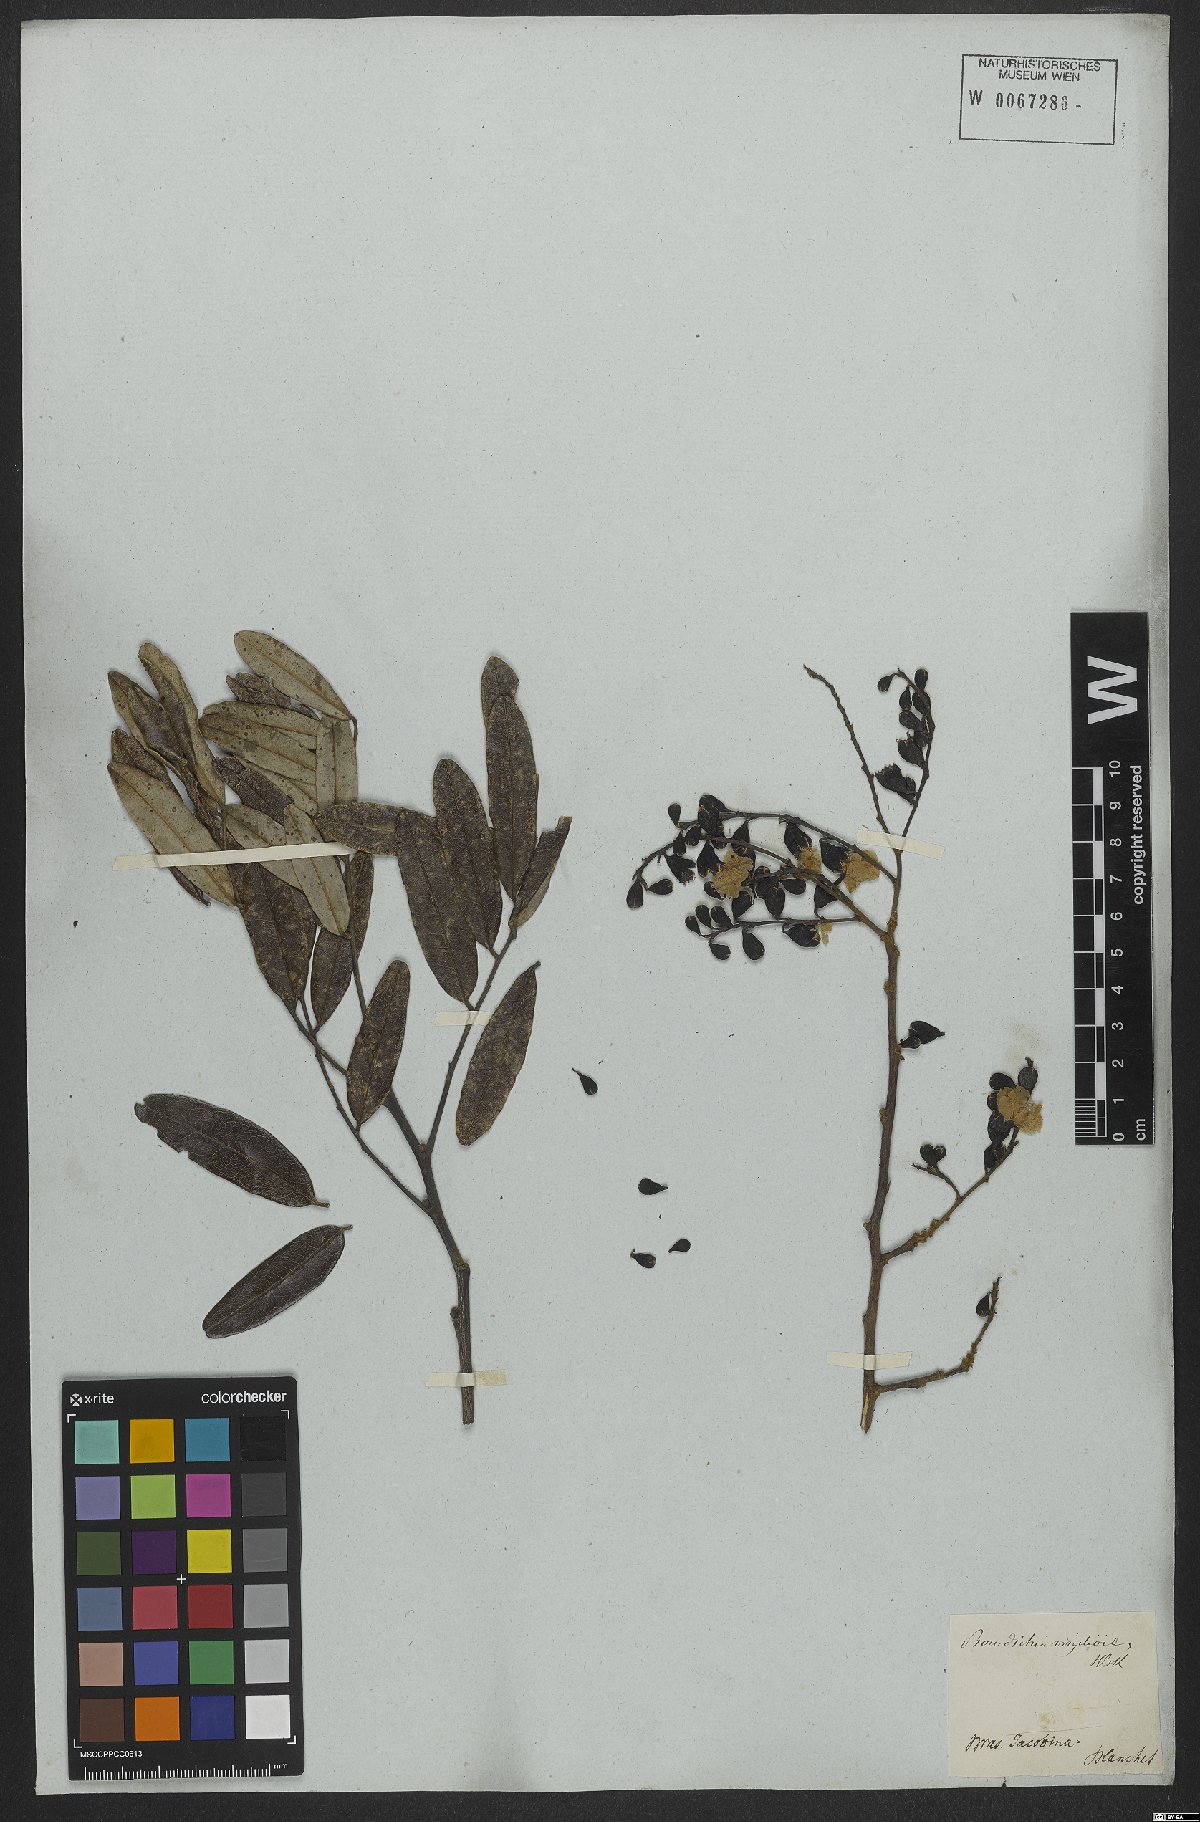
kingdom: Plantae
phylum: Tracheophyta
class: Magnoliopsida
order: Fabales
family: Fabaceae
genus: Bowdichia
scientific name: Bowdichia virgilioides
